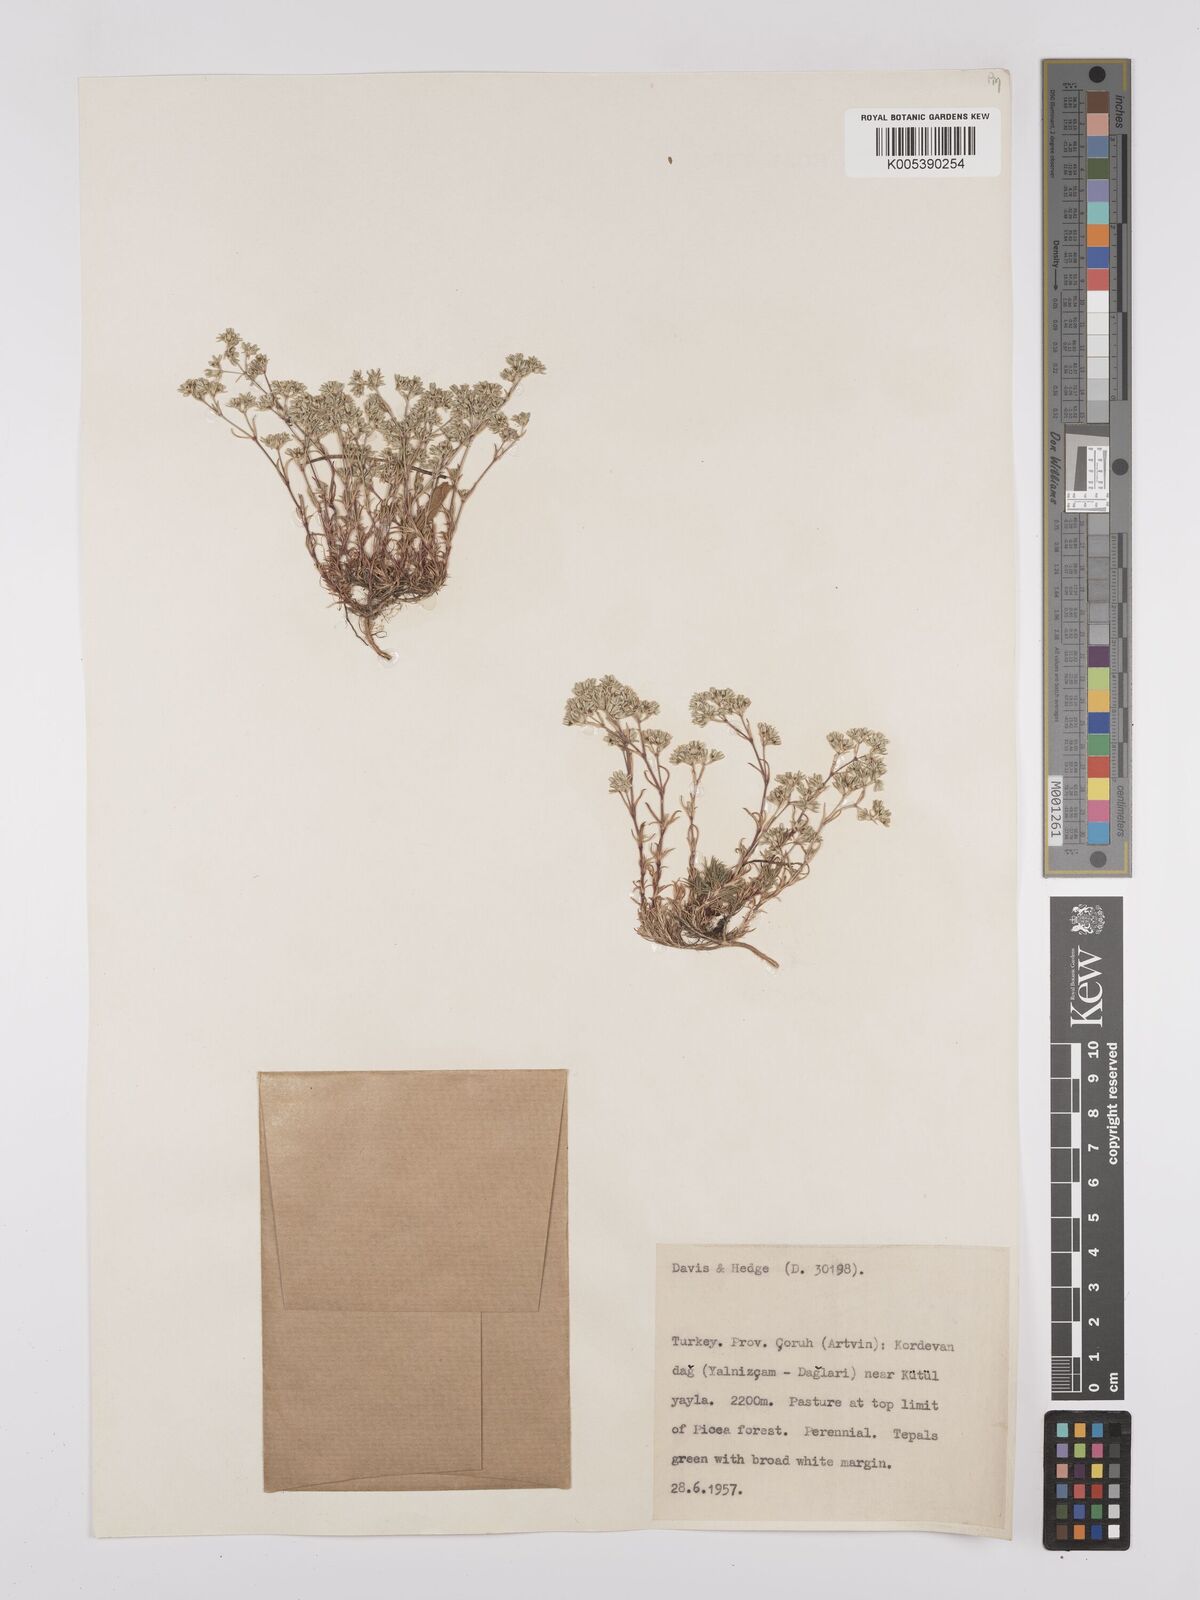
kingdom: Plantae
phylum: Tracheophyta
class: Magnoliopsida
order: Caryophyllales
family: Caryophyllaceae
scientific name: Caryophyllaceae
